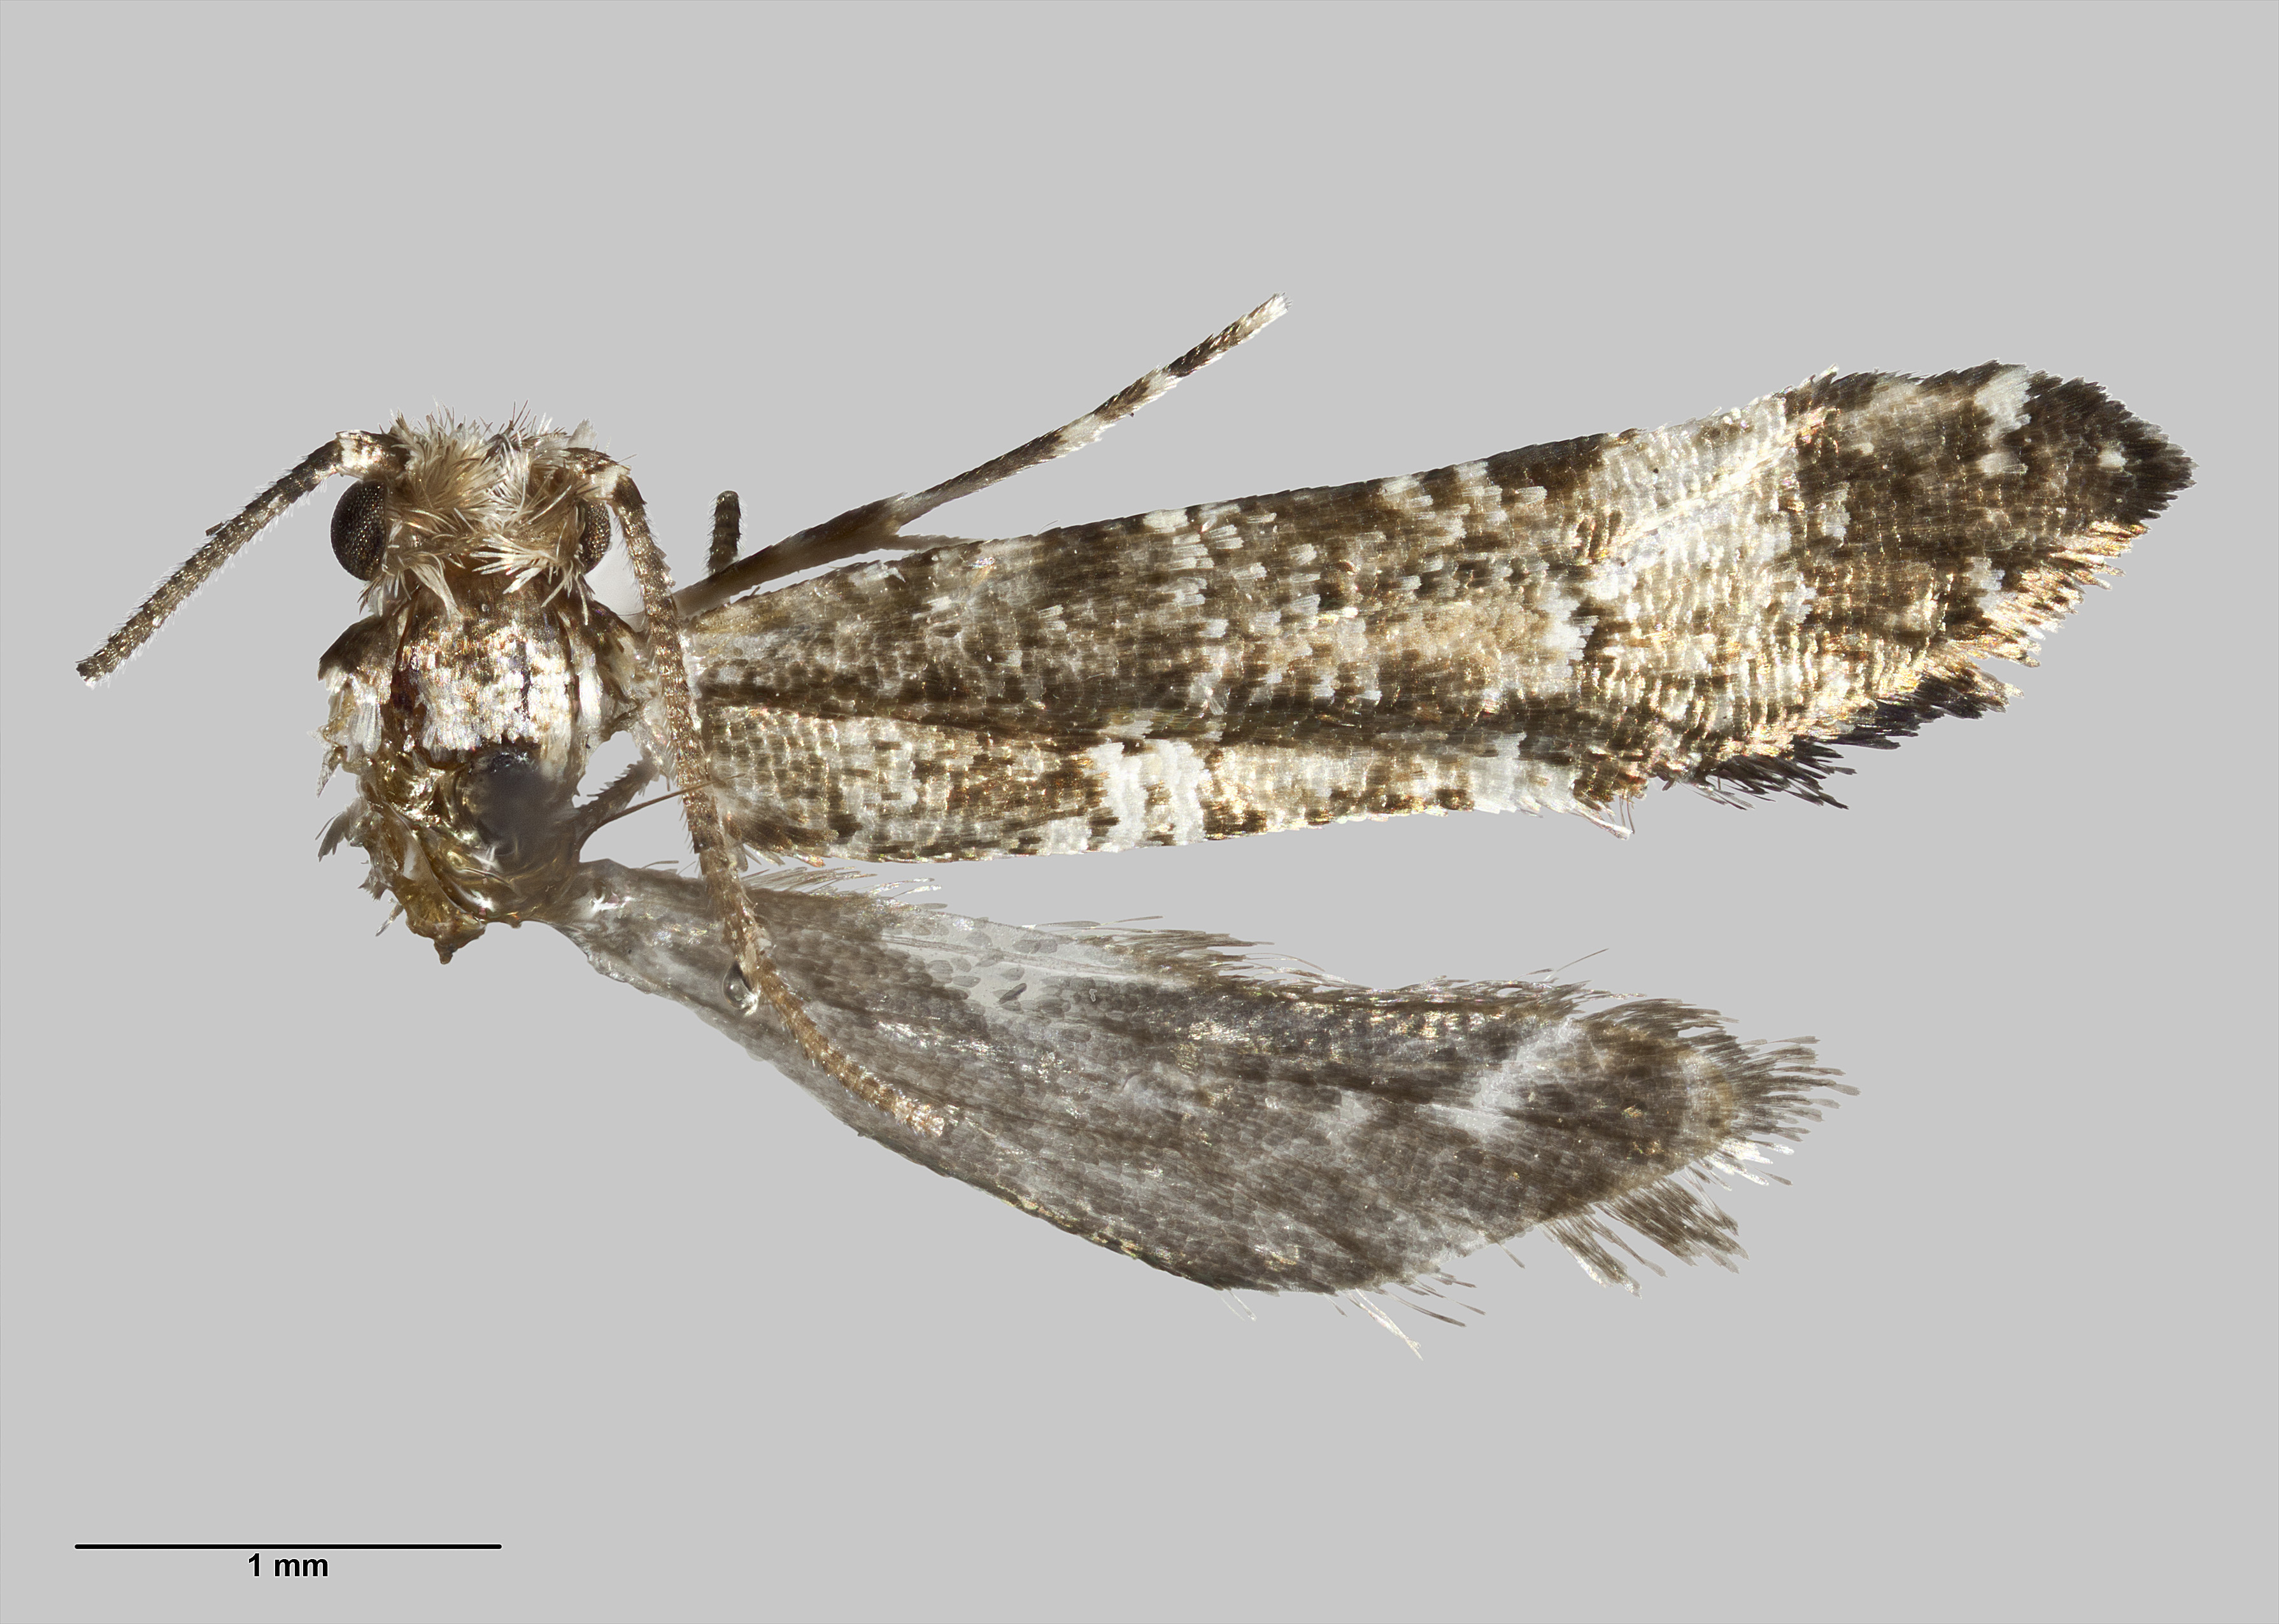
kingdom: Animalia
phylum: Arthropoda
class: Insecta
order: Lepidoptera
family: Tineidae
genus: Tinea
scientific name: Tinea conspecta
